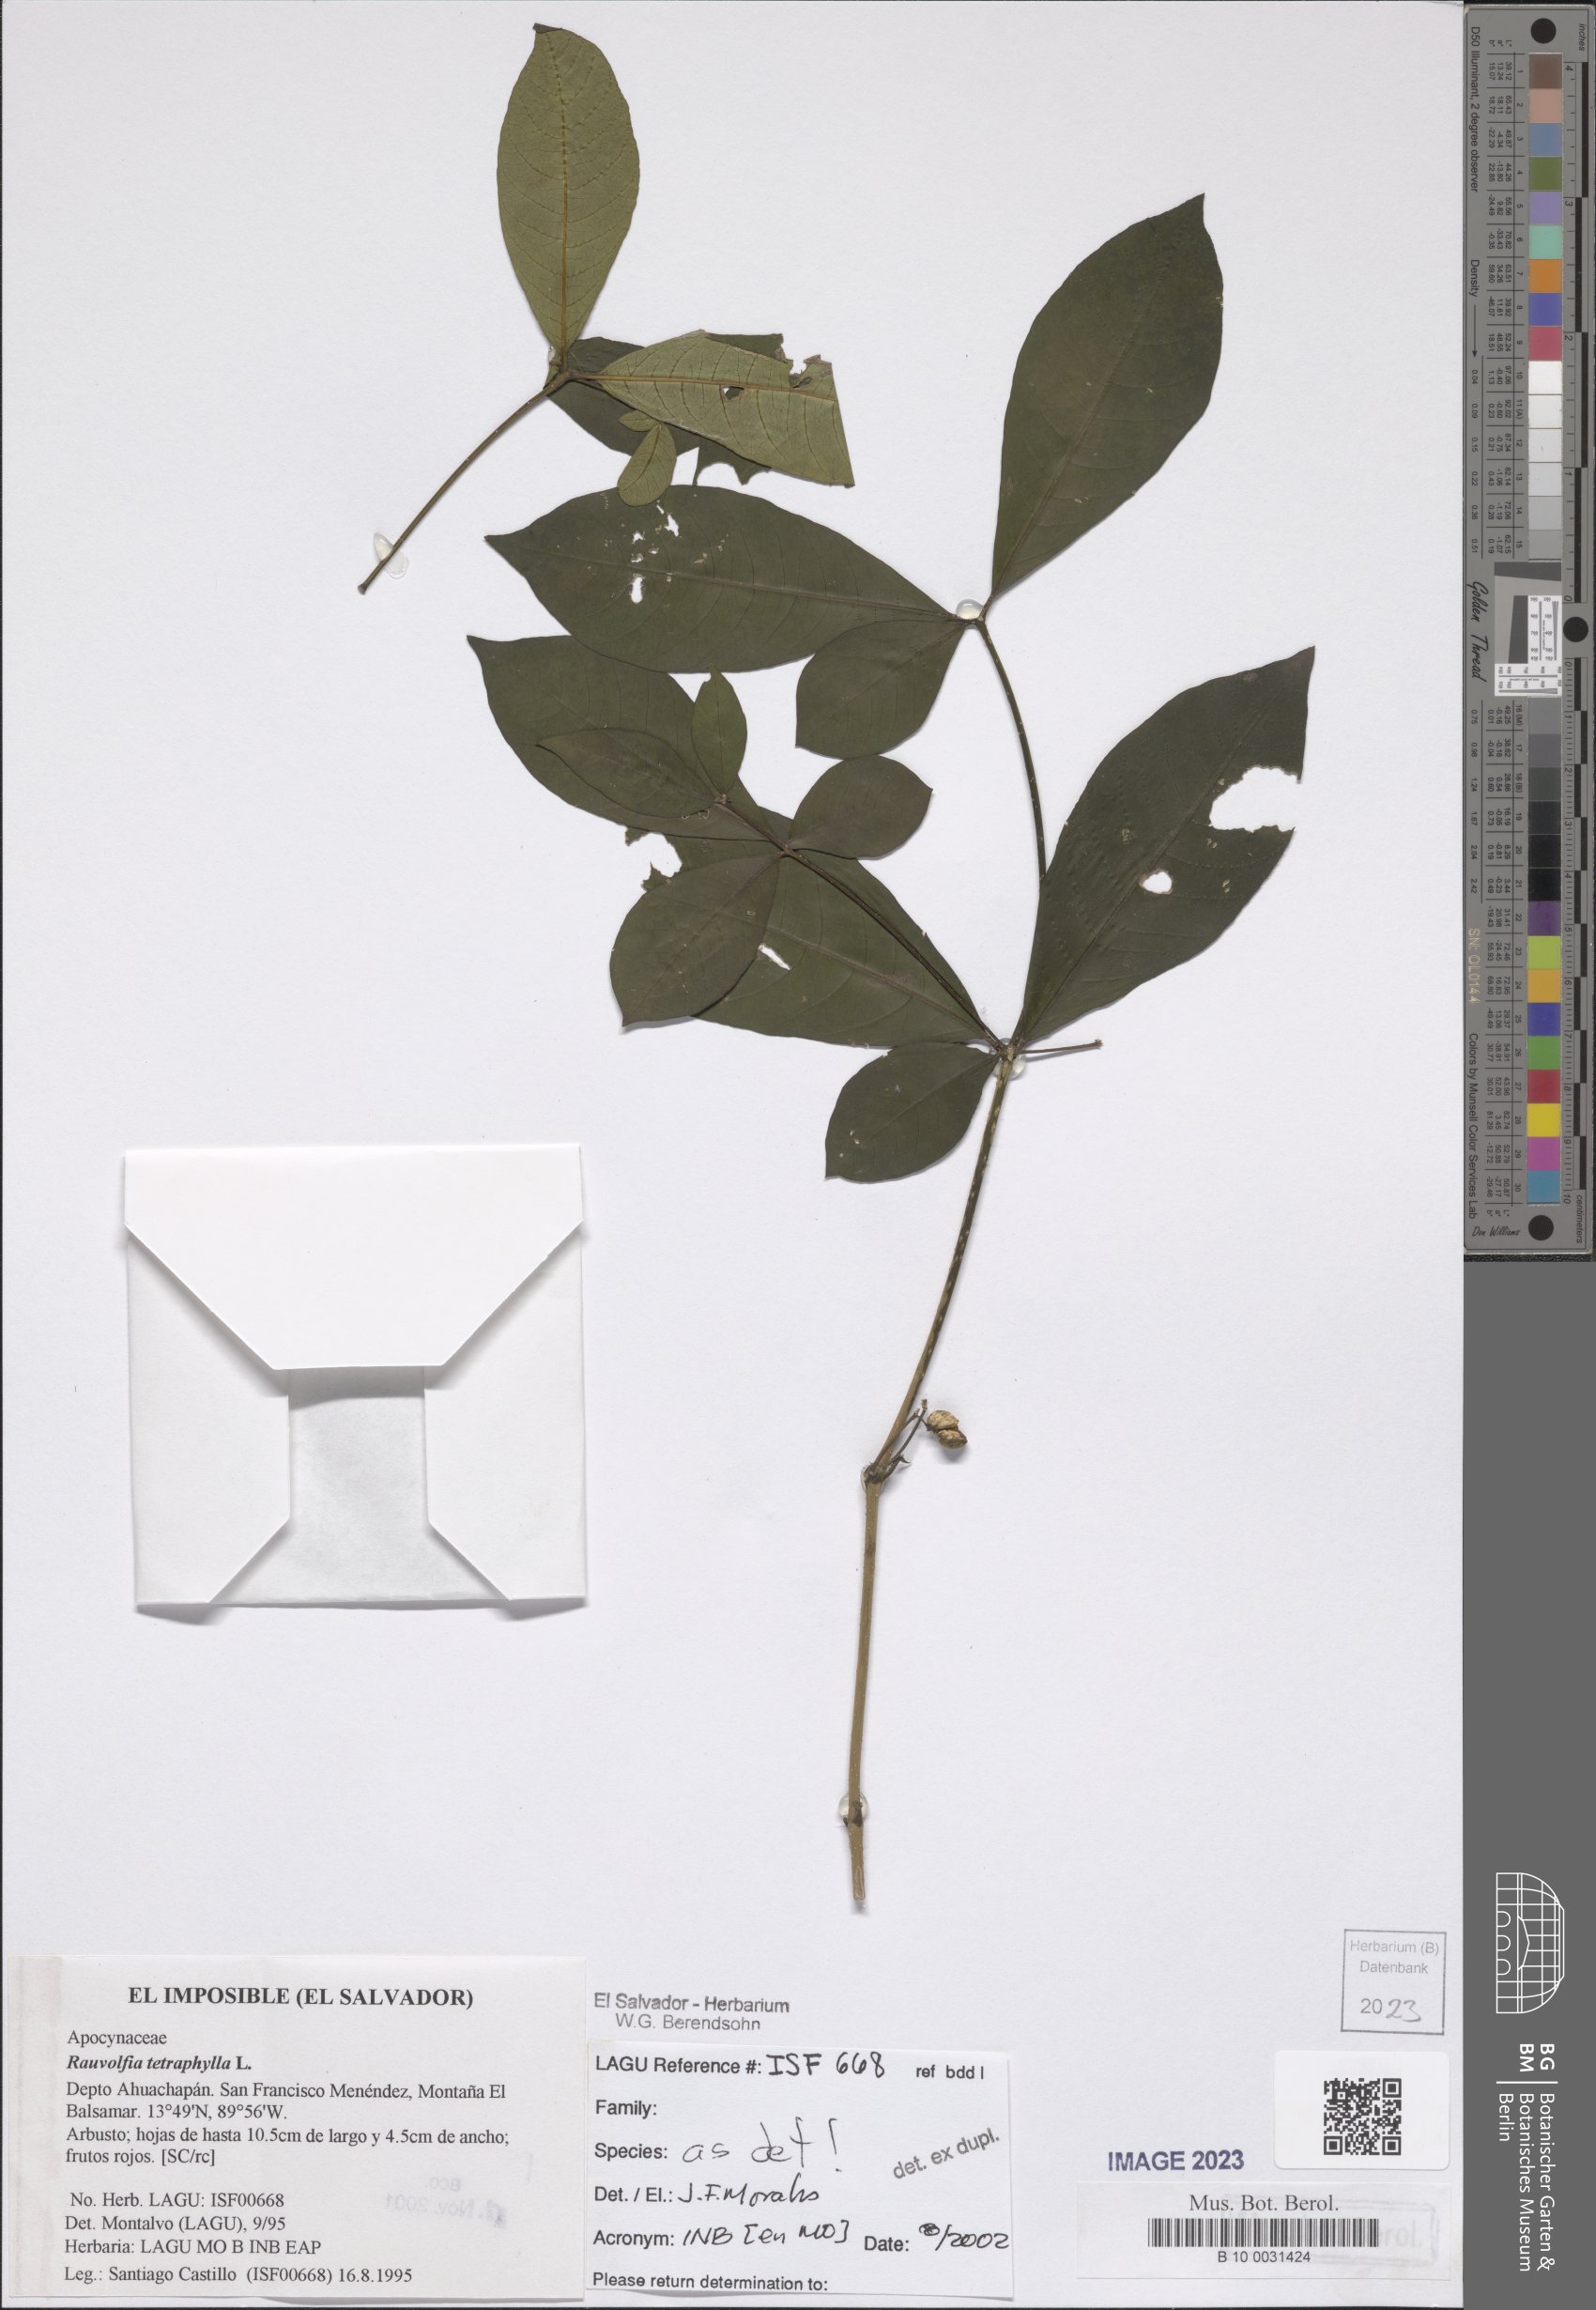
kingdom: Plantae
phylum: Tracheophyta
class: Magnoliopsida
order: Gentianales
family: Apocynaceae
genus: Rauvolfia
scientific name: Rauvolfia tetraphylla
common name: Four-leaf devil-pepper
